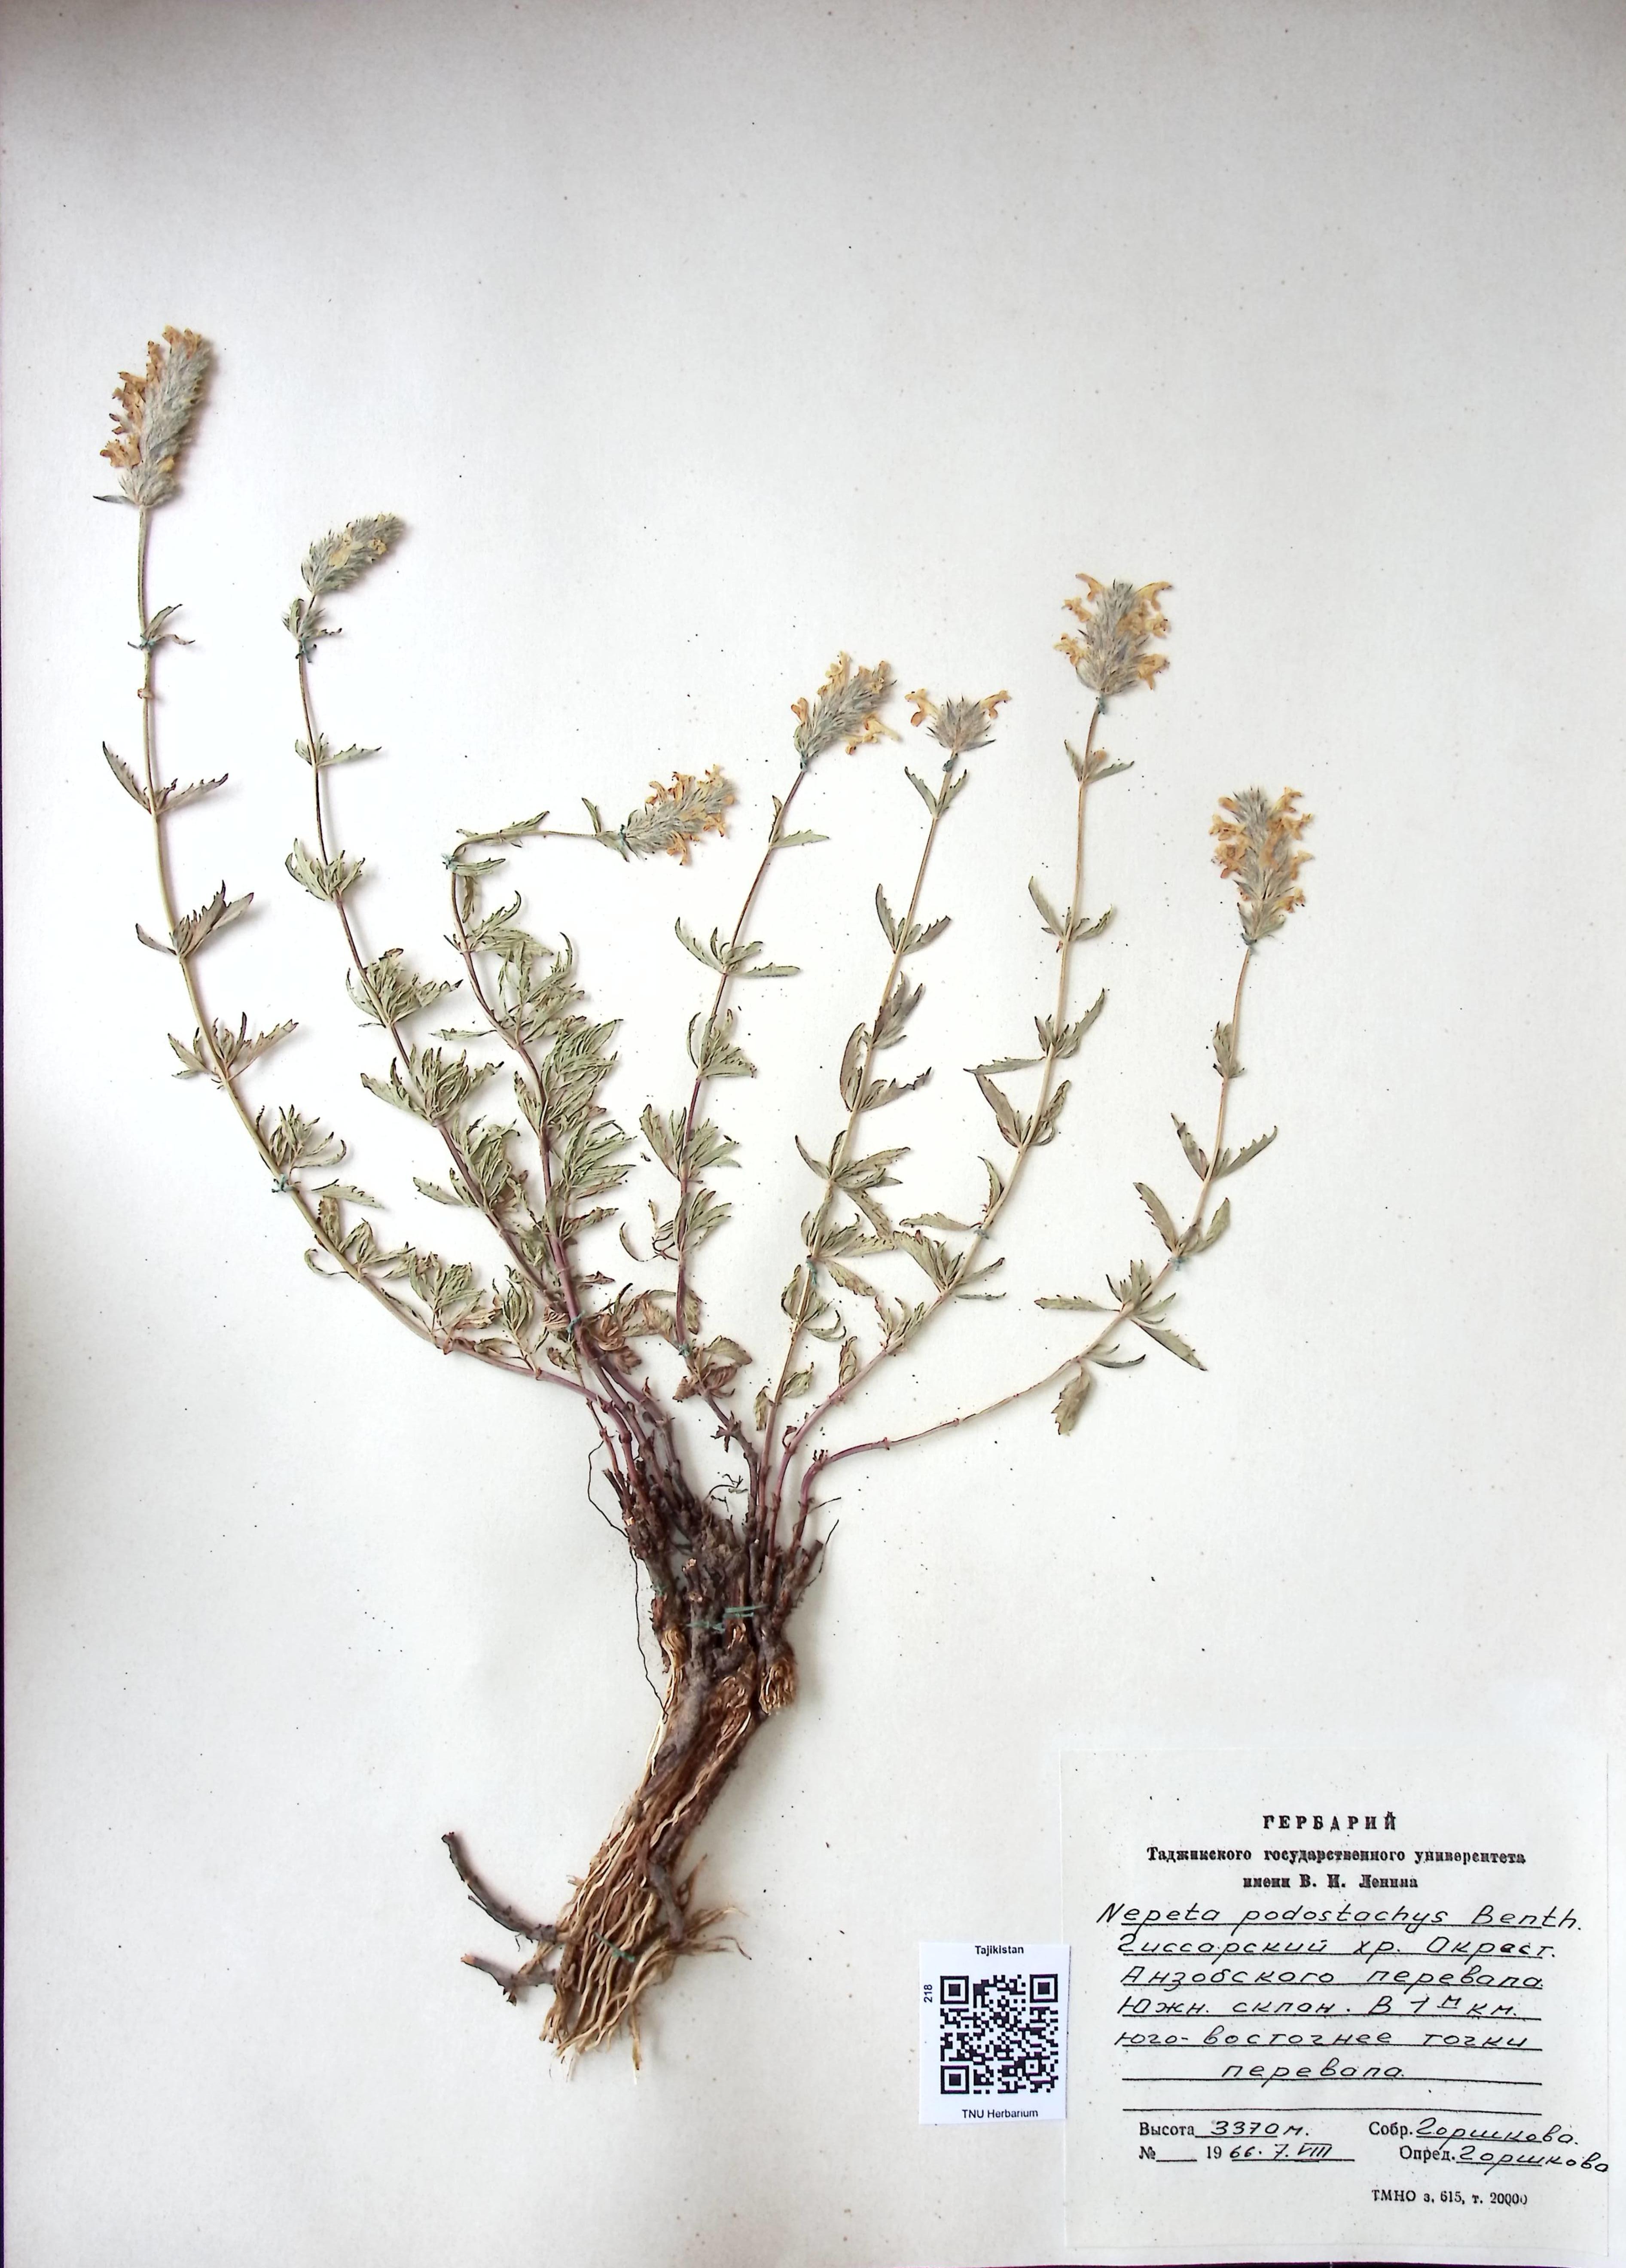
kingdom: Plantae
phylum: Tracheophyta
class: Magnoliopsida
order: Lamiales
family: Lamiaceae
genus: Nepeta
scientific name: Nepeta podostachys
